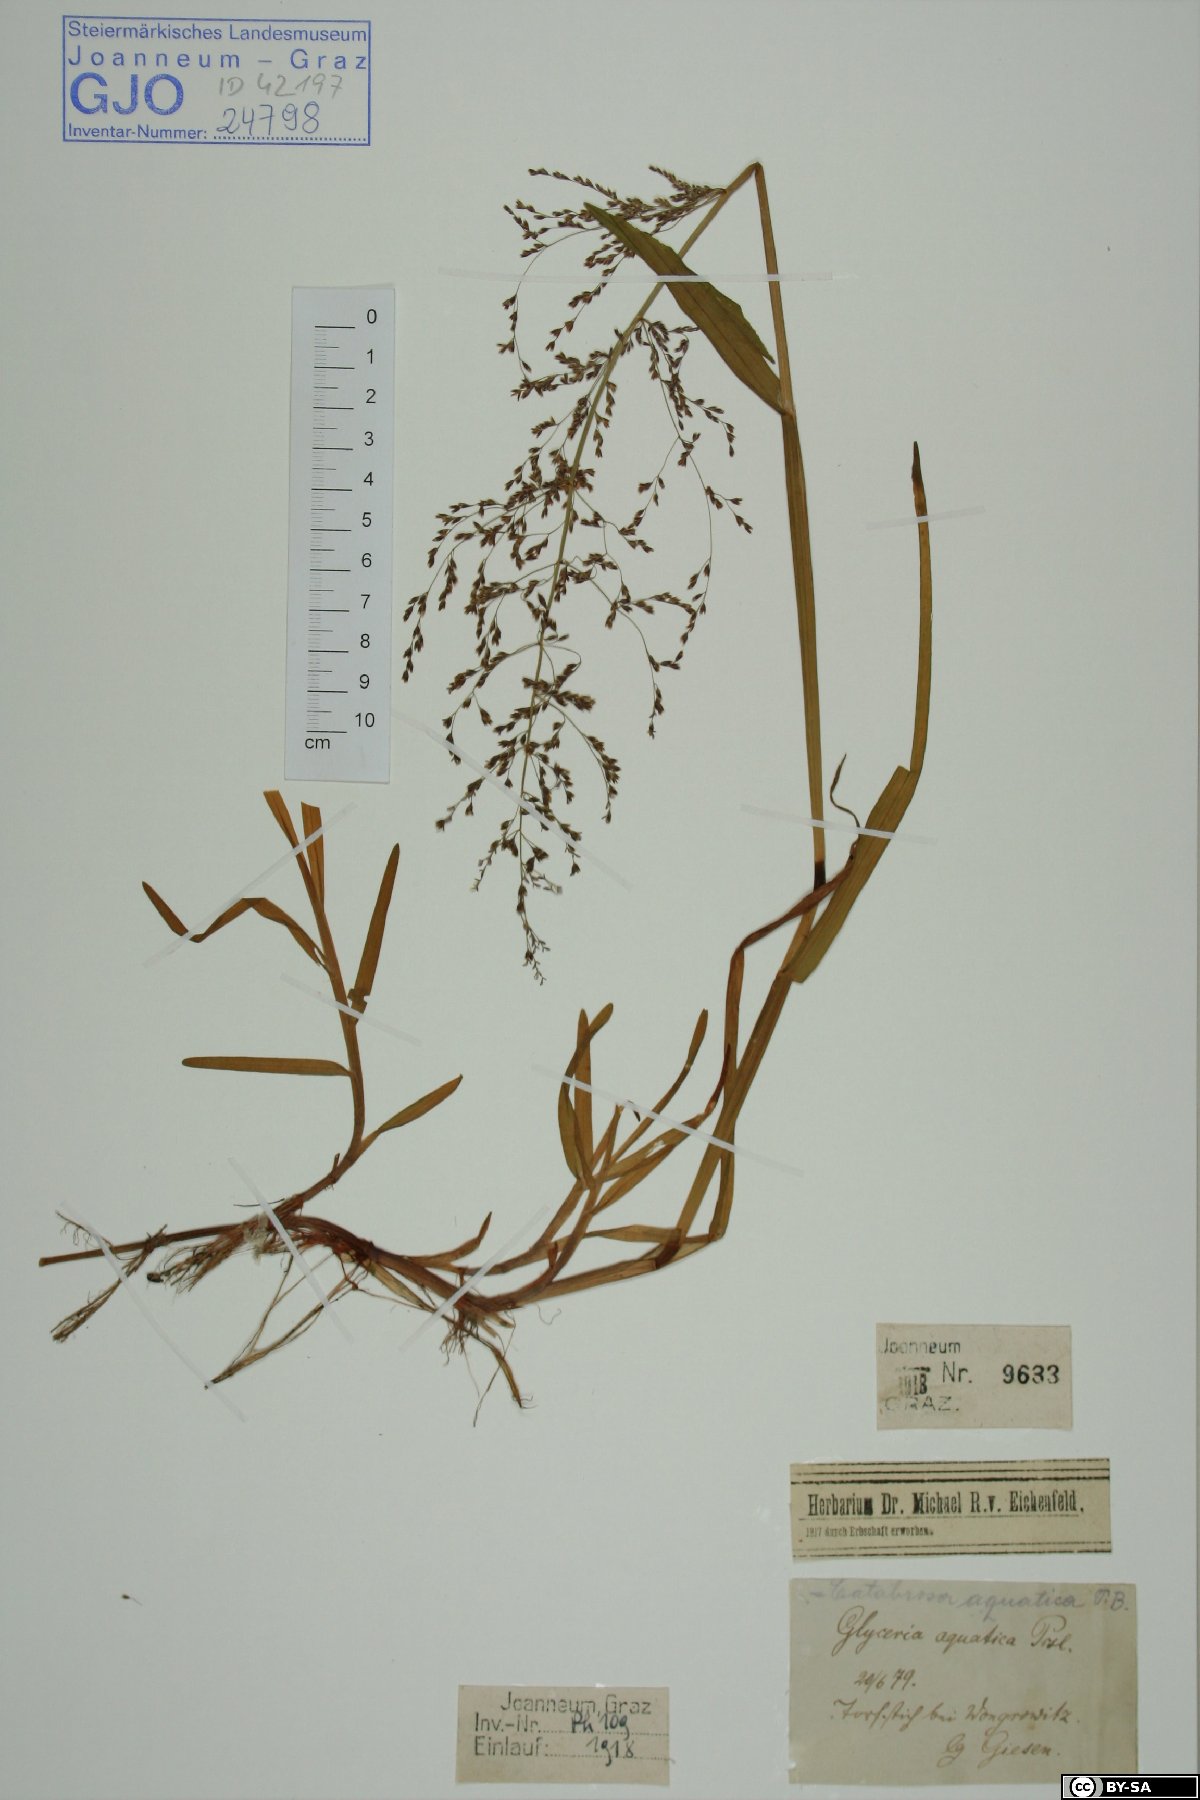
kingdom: Plantae
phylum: Tracheophyta
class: Liliopsida
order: Poales
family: Poaceae
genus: Catabrosa
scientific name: Catabrosa aquatica
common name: Whorl-grass
